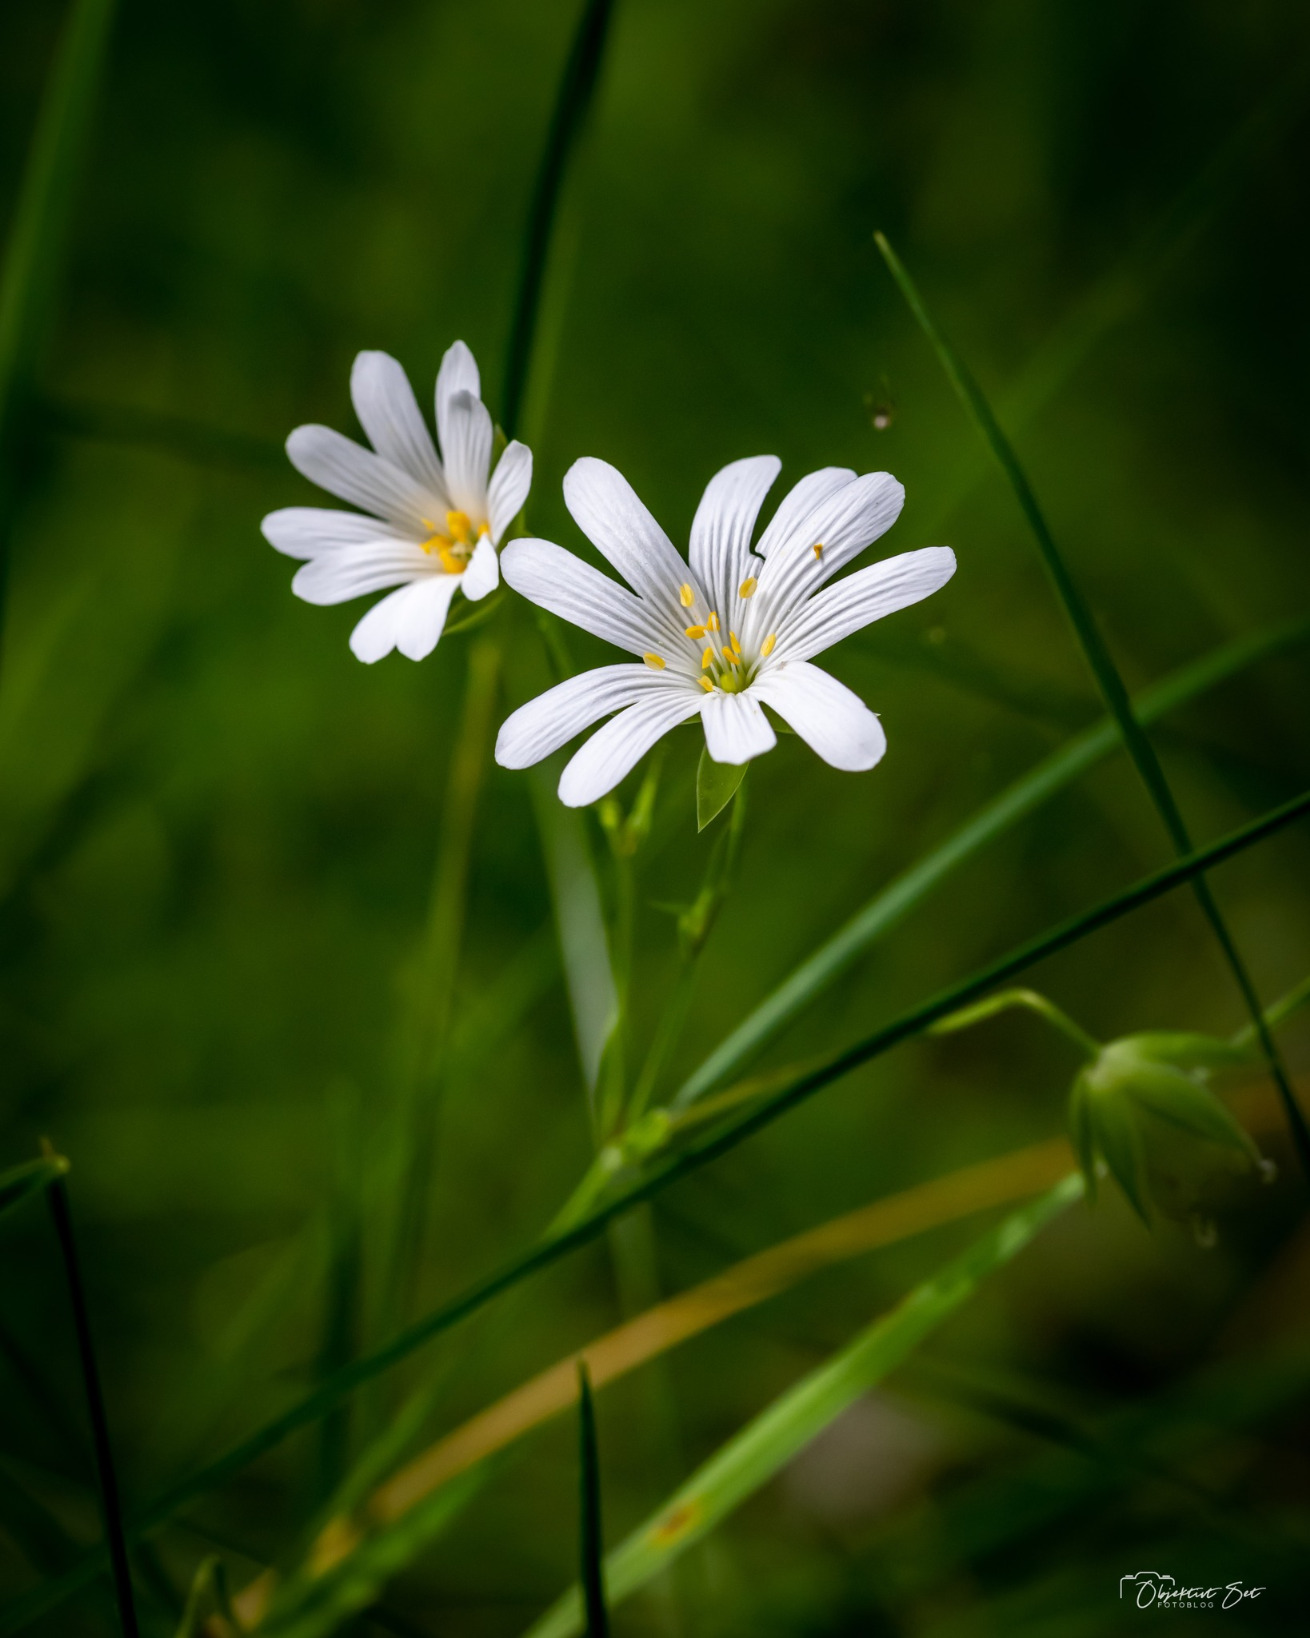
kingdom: Plantae
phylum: Tracheophyta
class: Magnoliopsida
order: Caryophyllales
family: Caryophyllaceae
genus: Rabelera
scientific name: Rabelera holostea
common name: Stor fladstjerne
